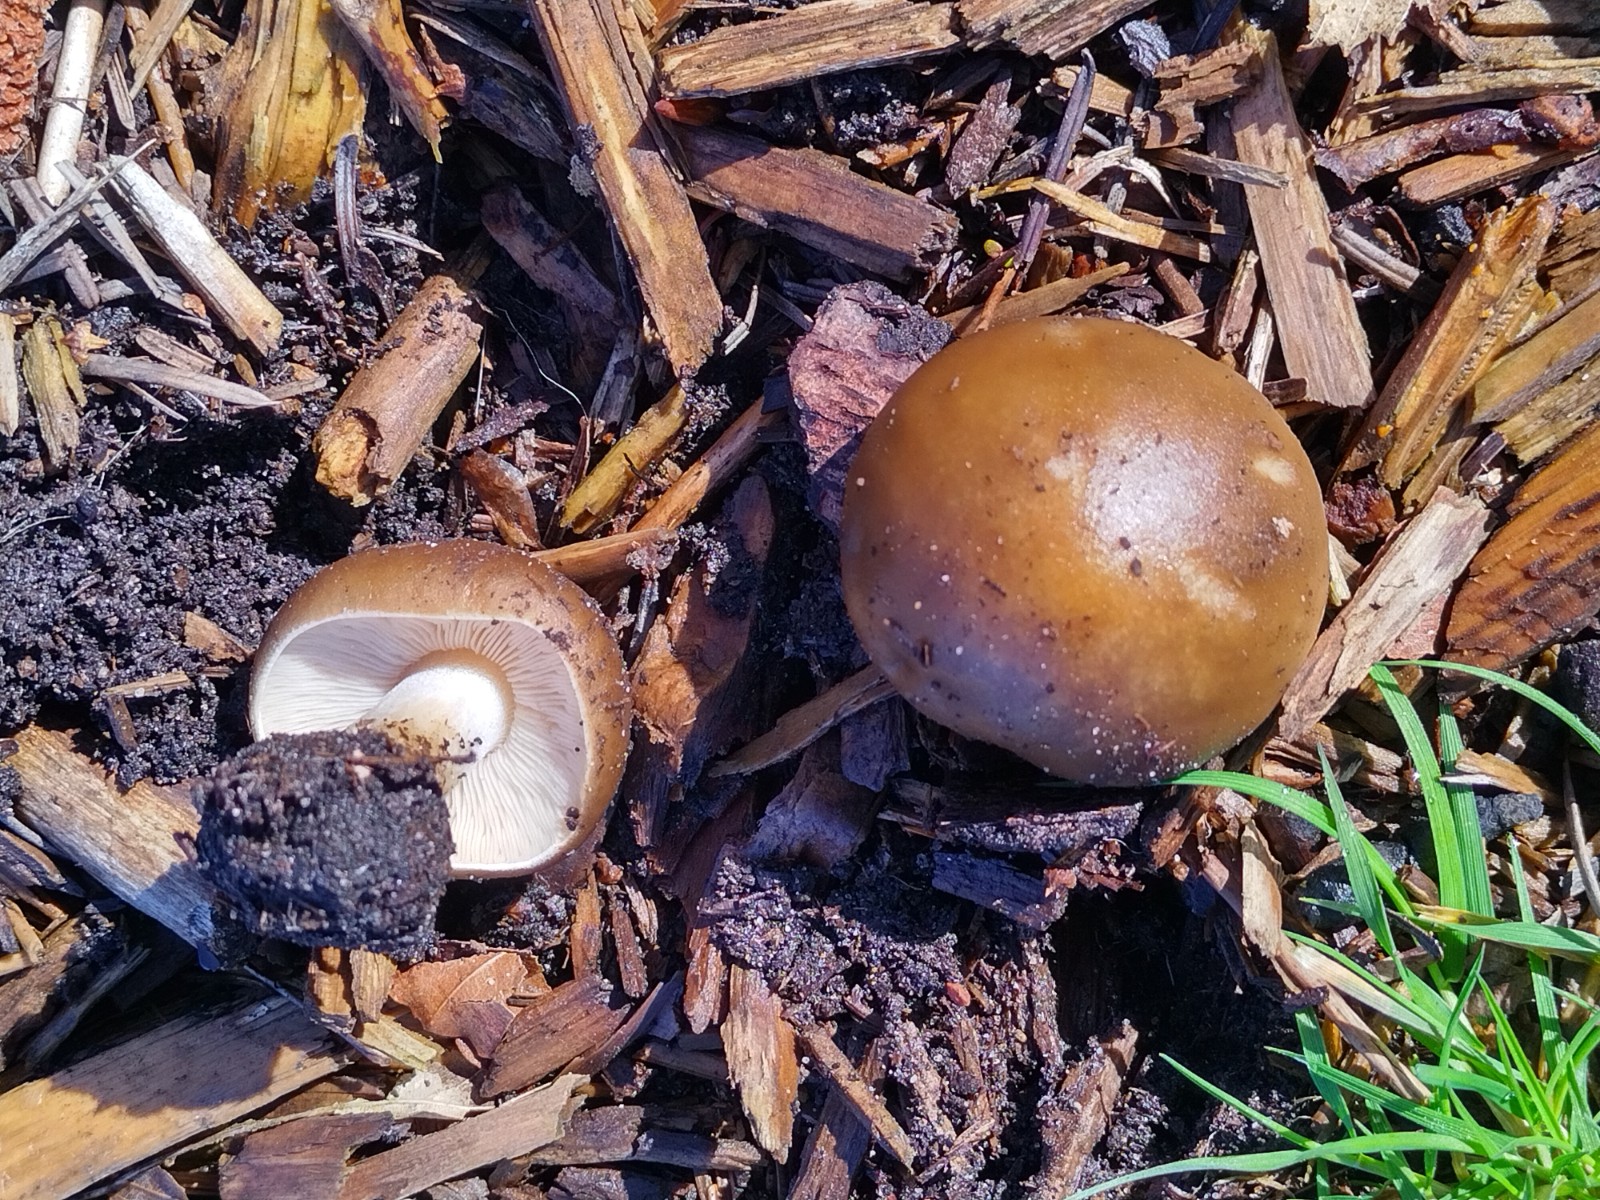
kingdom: Fungi
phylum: Basidiomycota
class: Agaricomycetes
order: Agaricales
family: Tricholomataceae
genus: Melanoleuca
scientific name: Melanoleuca cognata
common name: gyldengrå munkehat
